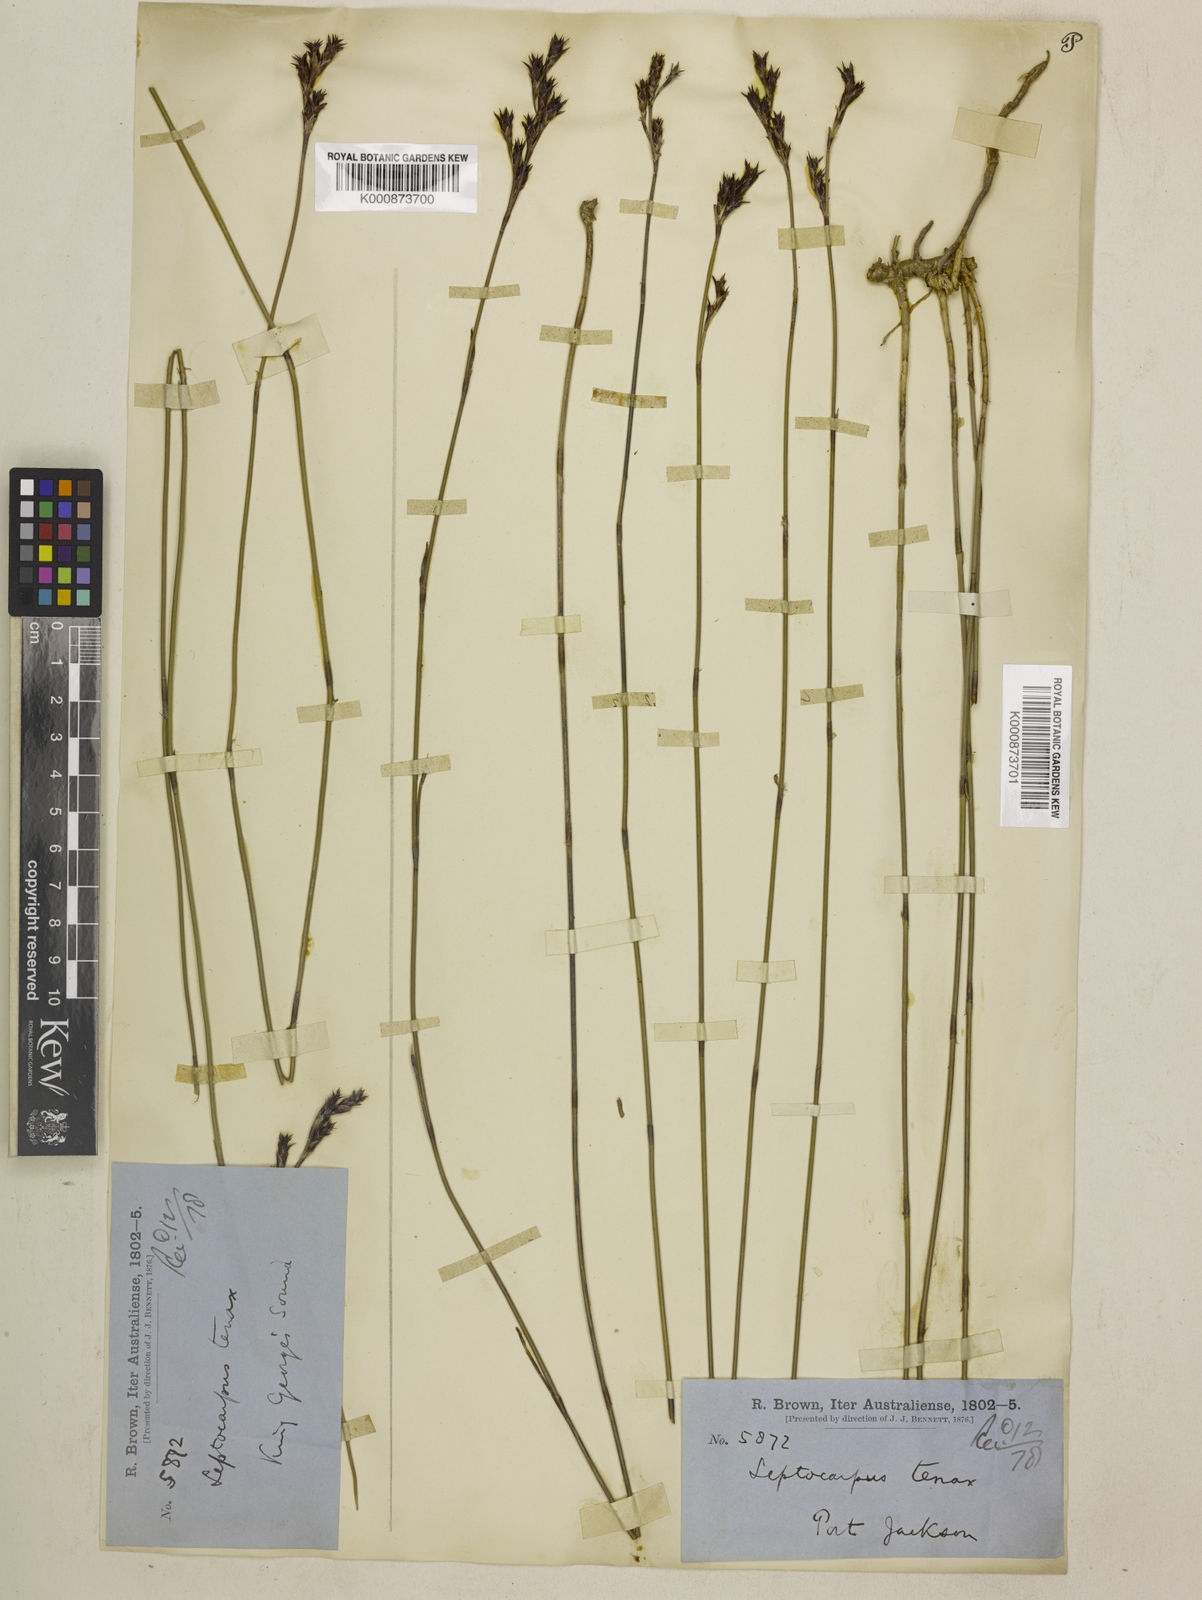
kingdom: Plantae
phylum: Tracheophyta
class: Liliopsida
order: Poales
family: Restionaceae
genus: Leptocarpus
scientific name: Leptocarpus tenax
